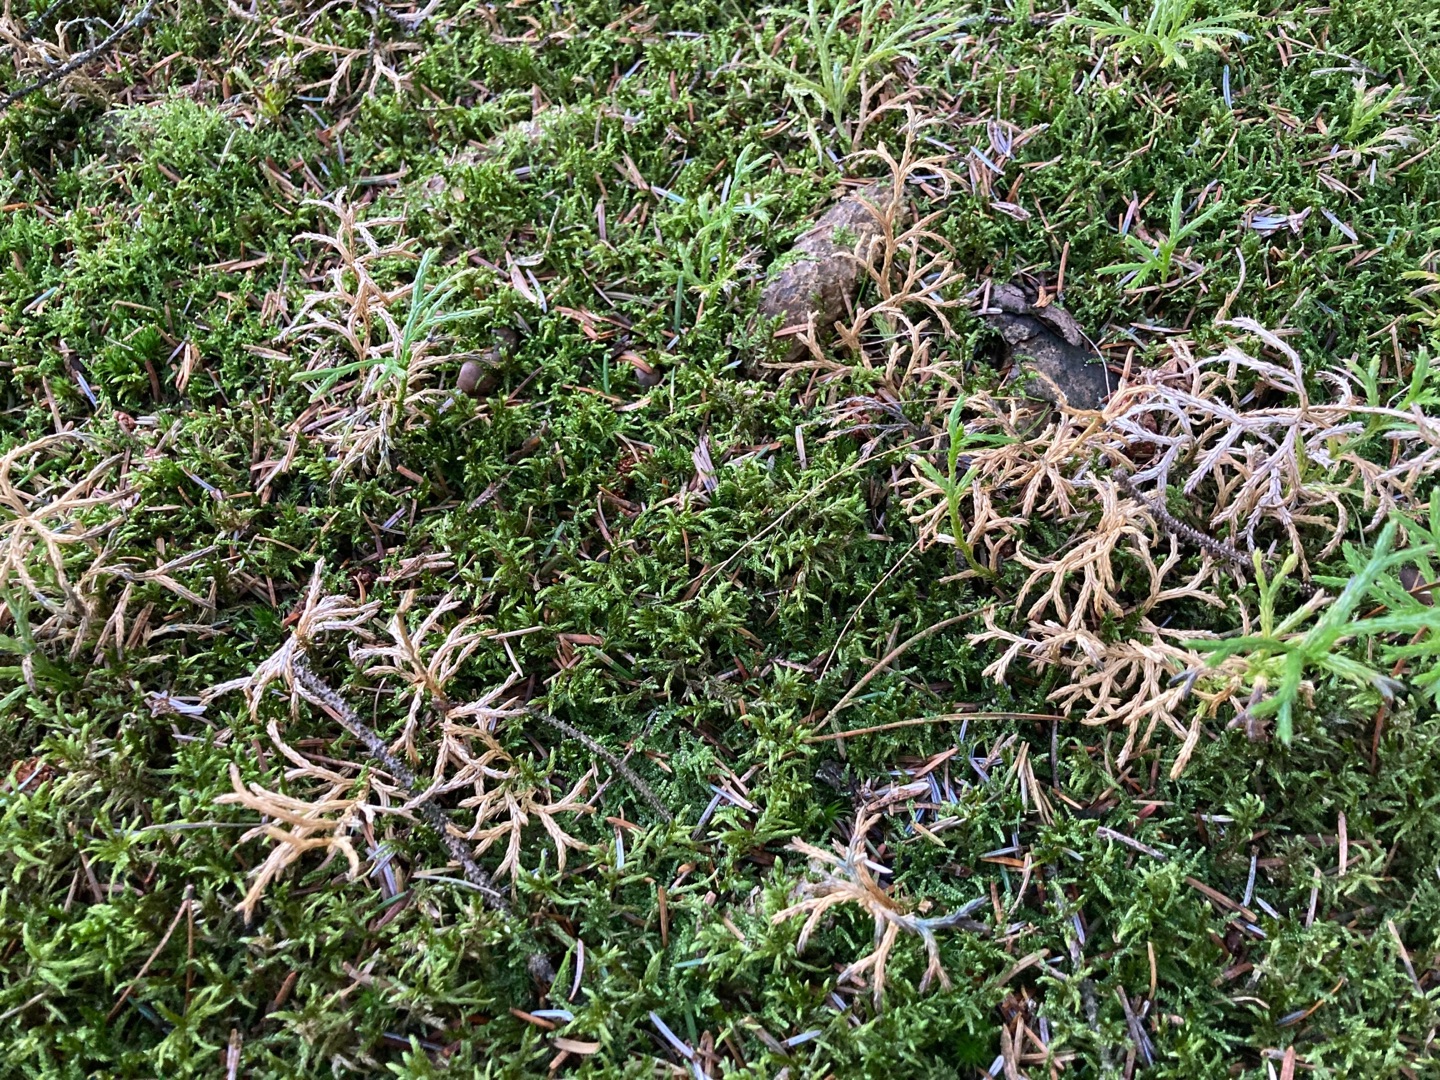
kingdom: Plantae
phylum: Tracheophyta
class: Lycopodiopsida
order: Lycopodiales
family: Lycopodiaceae
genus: Diphasiastrum
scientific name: Diphasiastrum complanatum
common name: Flad ulvefod
